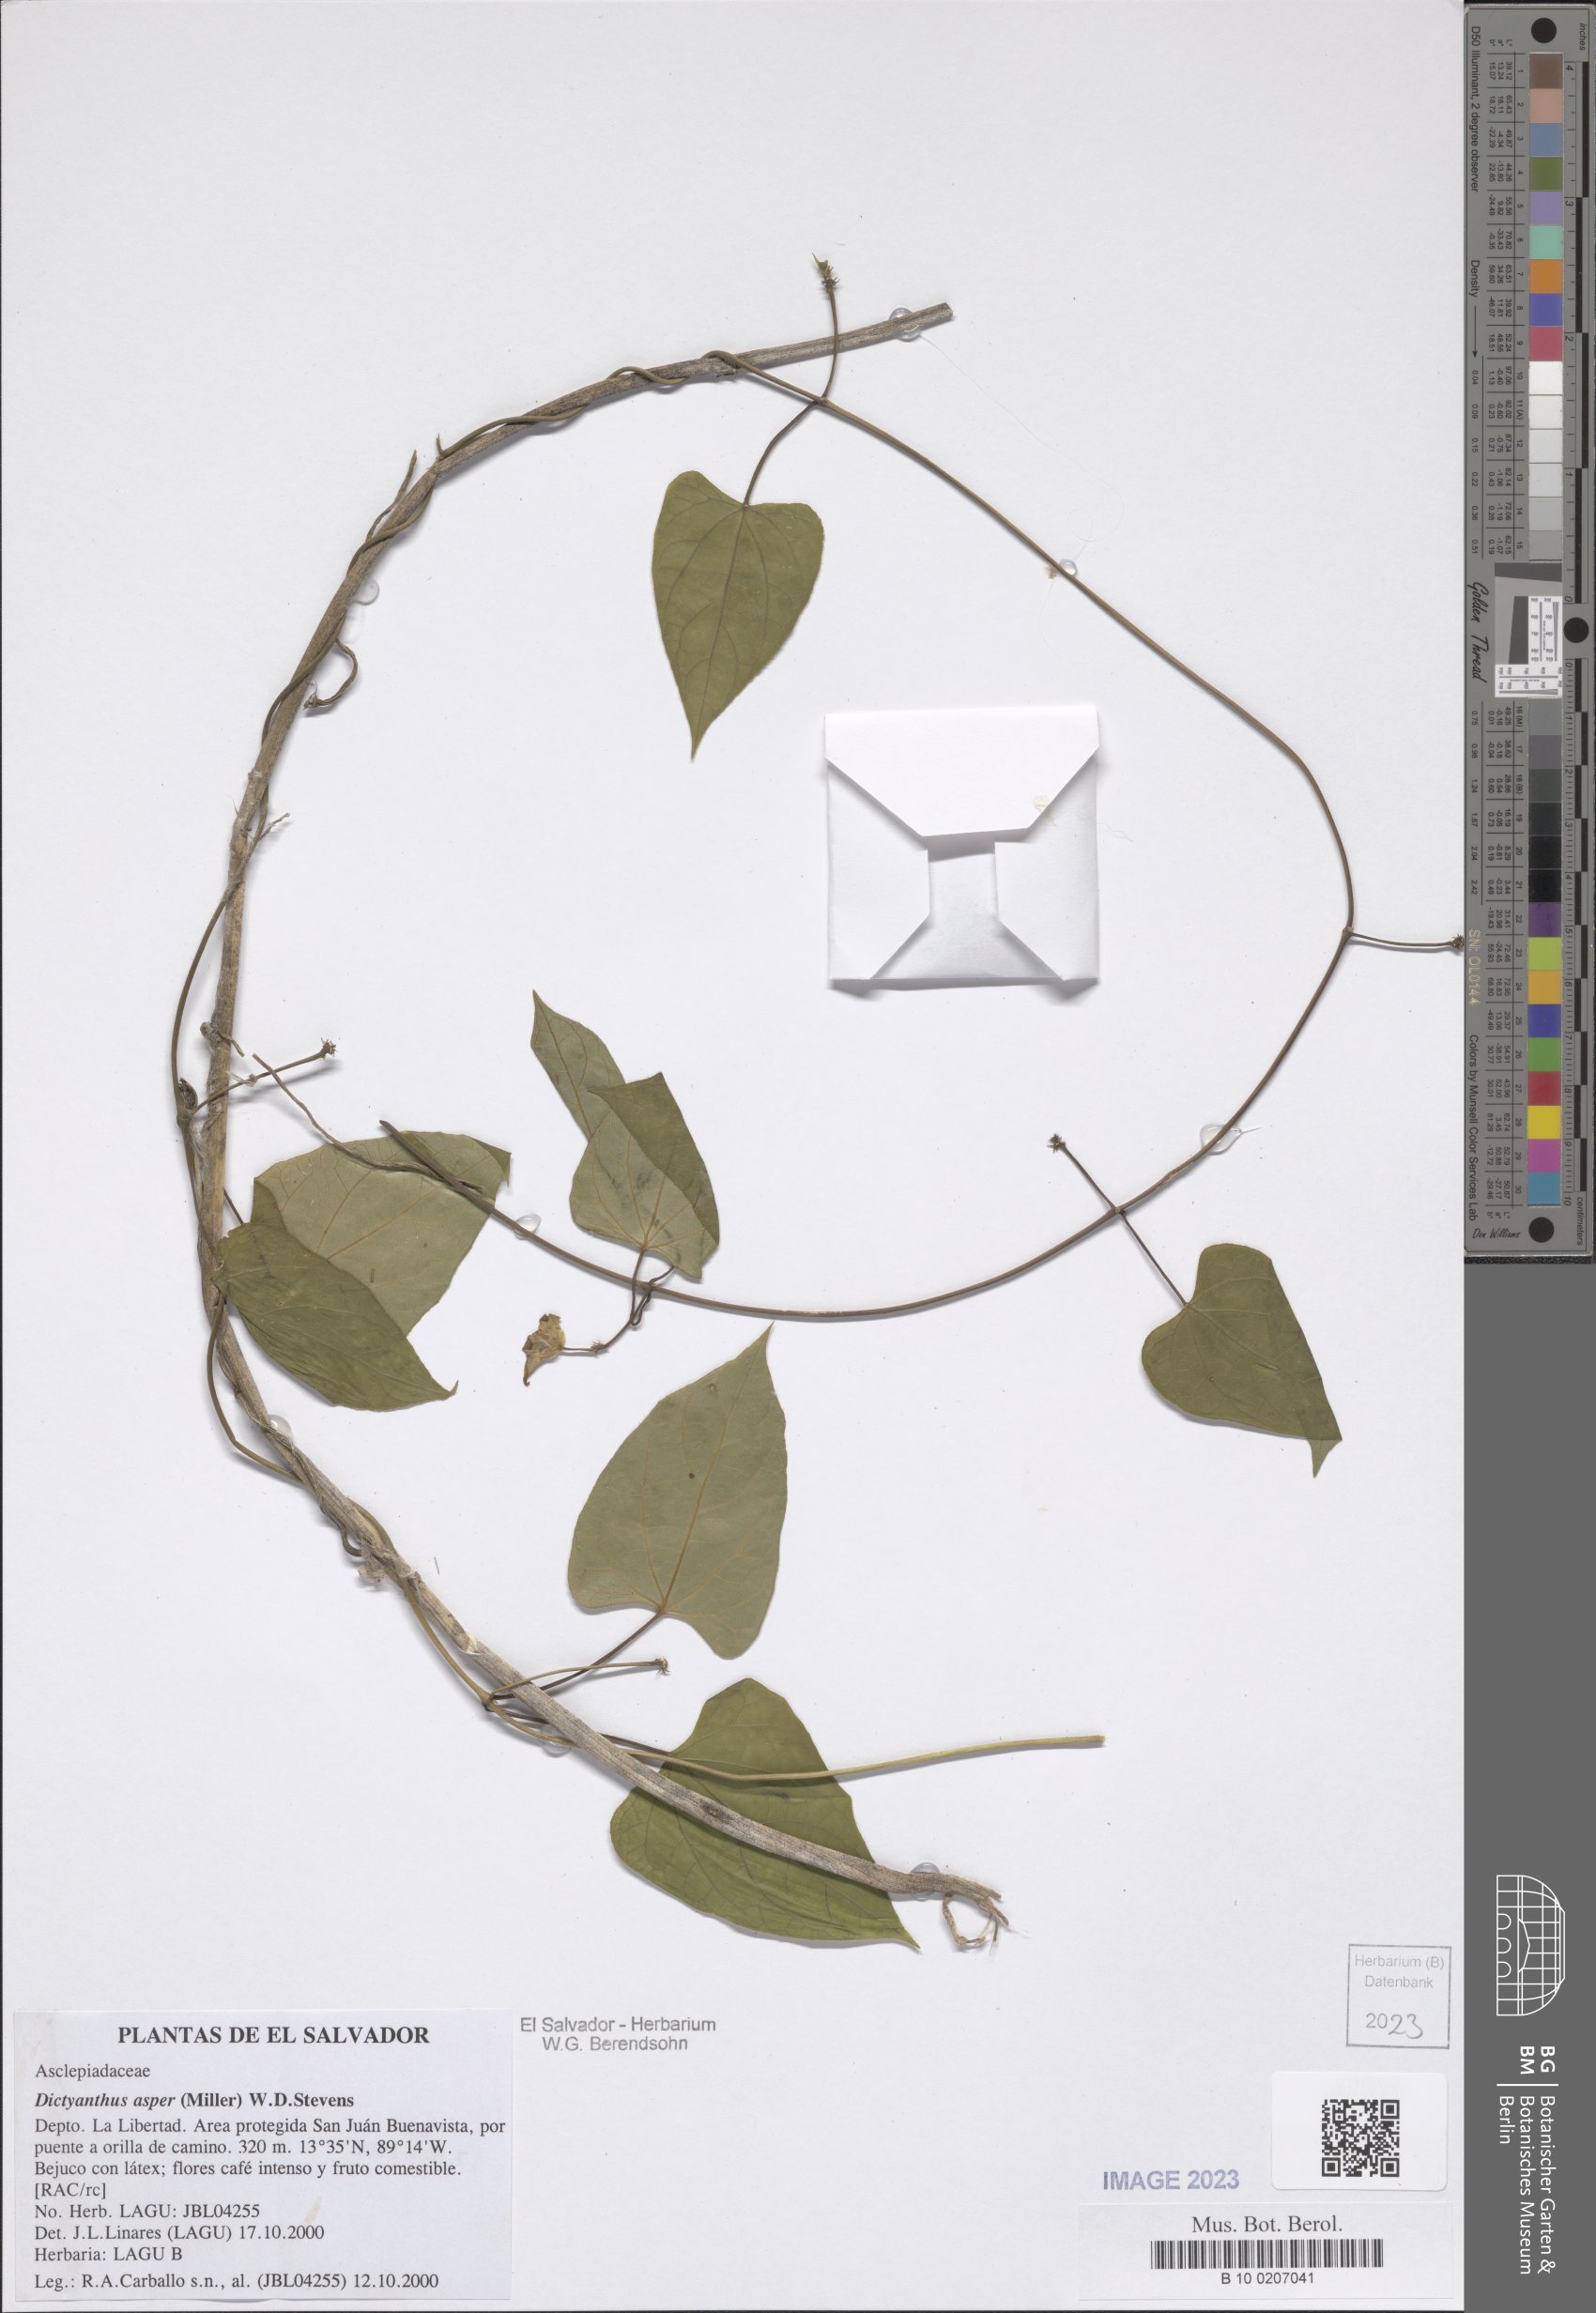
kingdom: Plantae
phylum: Tracheophyta
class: Magnoliopsida
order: Gentianales
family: Apocynaceae
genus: Dictyanthus
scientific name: Dictyanthus asper
